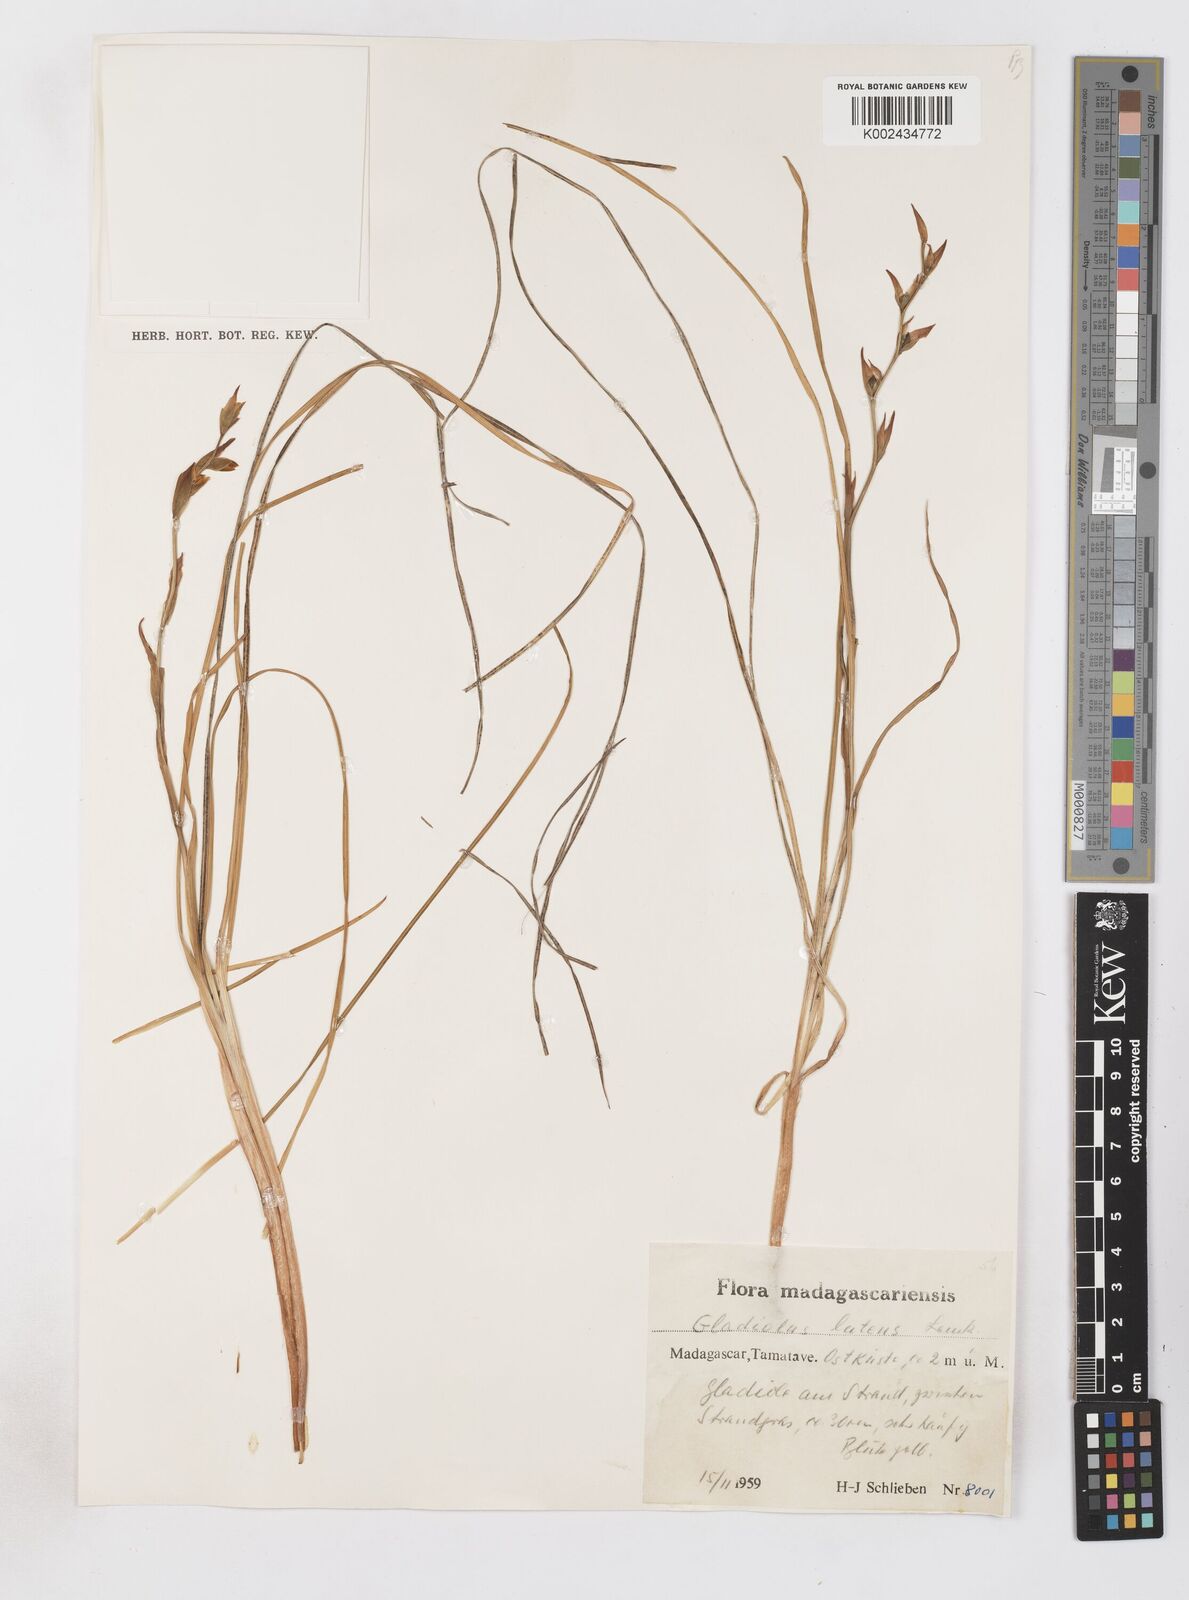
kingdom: Plantae
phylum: Tracheophyta
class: Liliopsida
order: Asparagales
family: Iridaceae
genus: Gladiolus
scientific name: Gladiolus luteus
